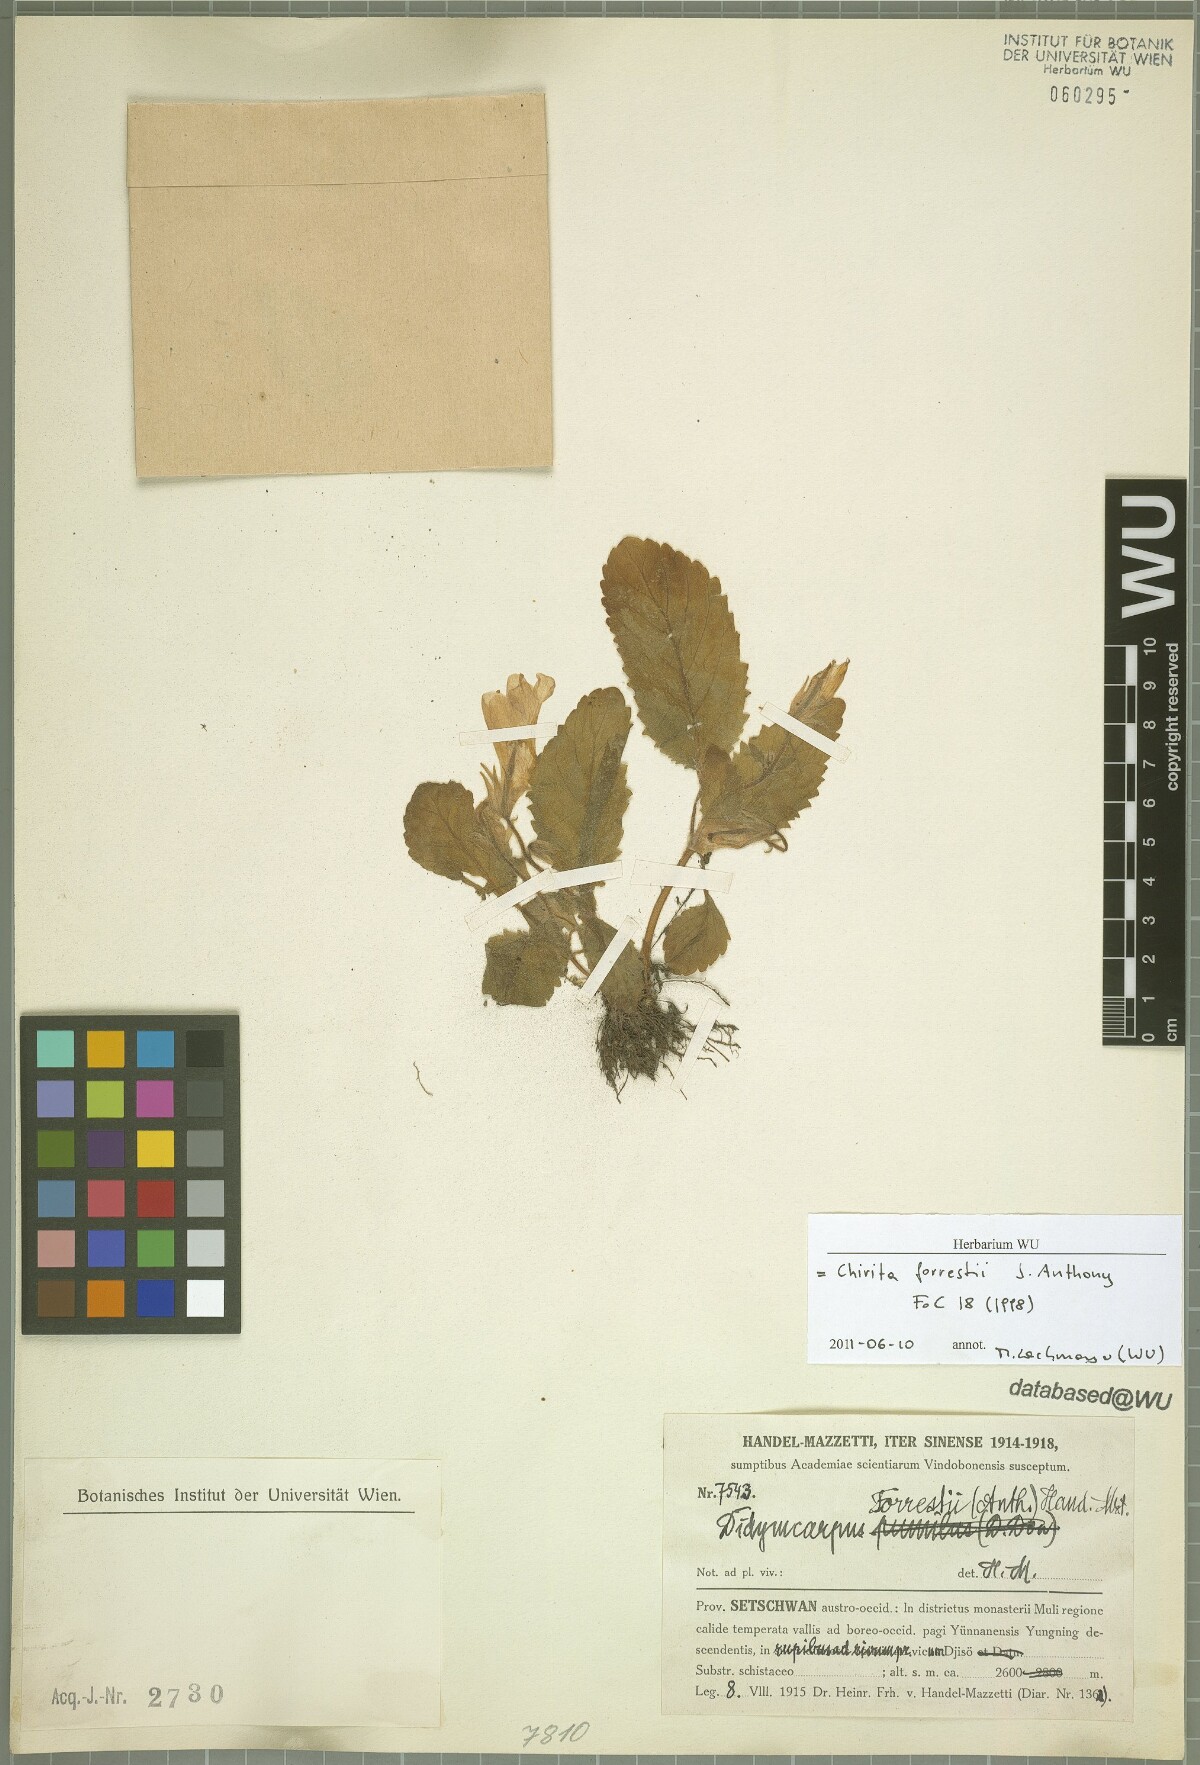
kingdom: Plantae
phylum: Tracheophyta
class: Magnoliopsida
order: Lamiales
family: Gesneriaceae
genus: Henckelia
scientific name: Henckelia forrestii
